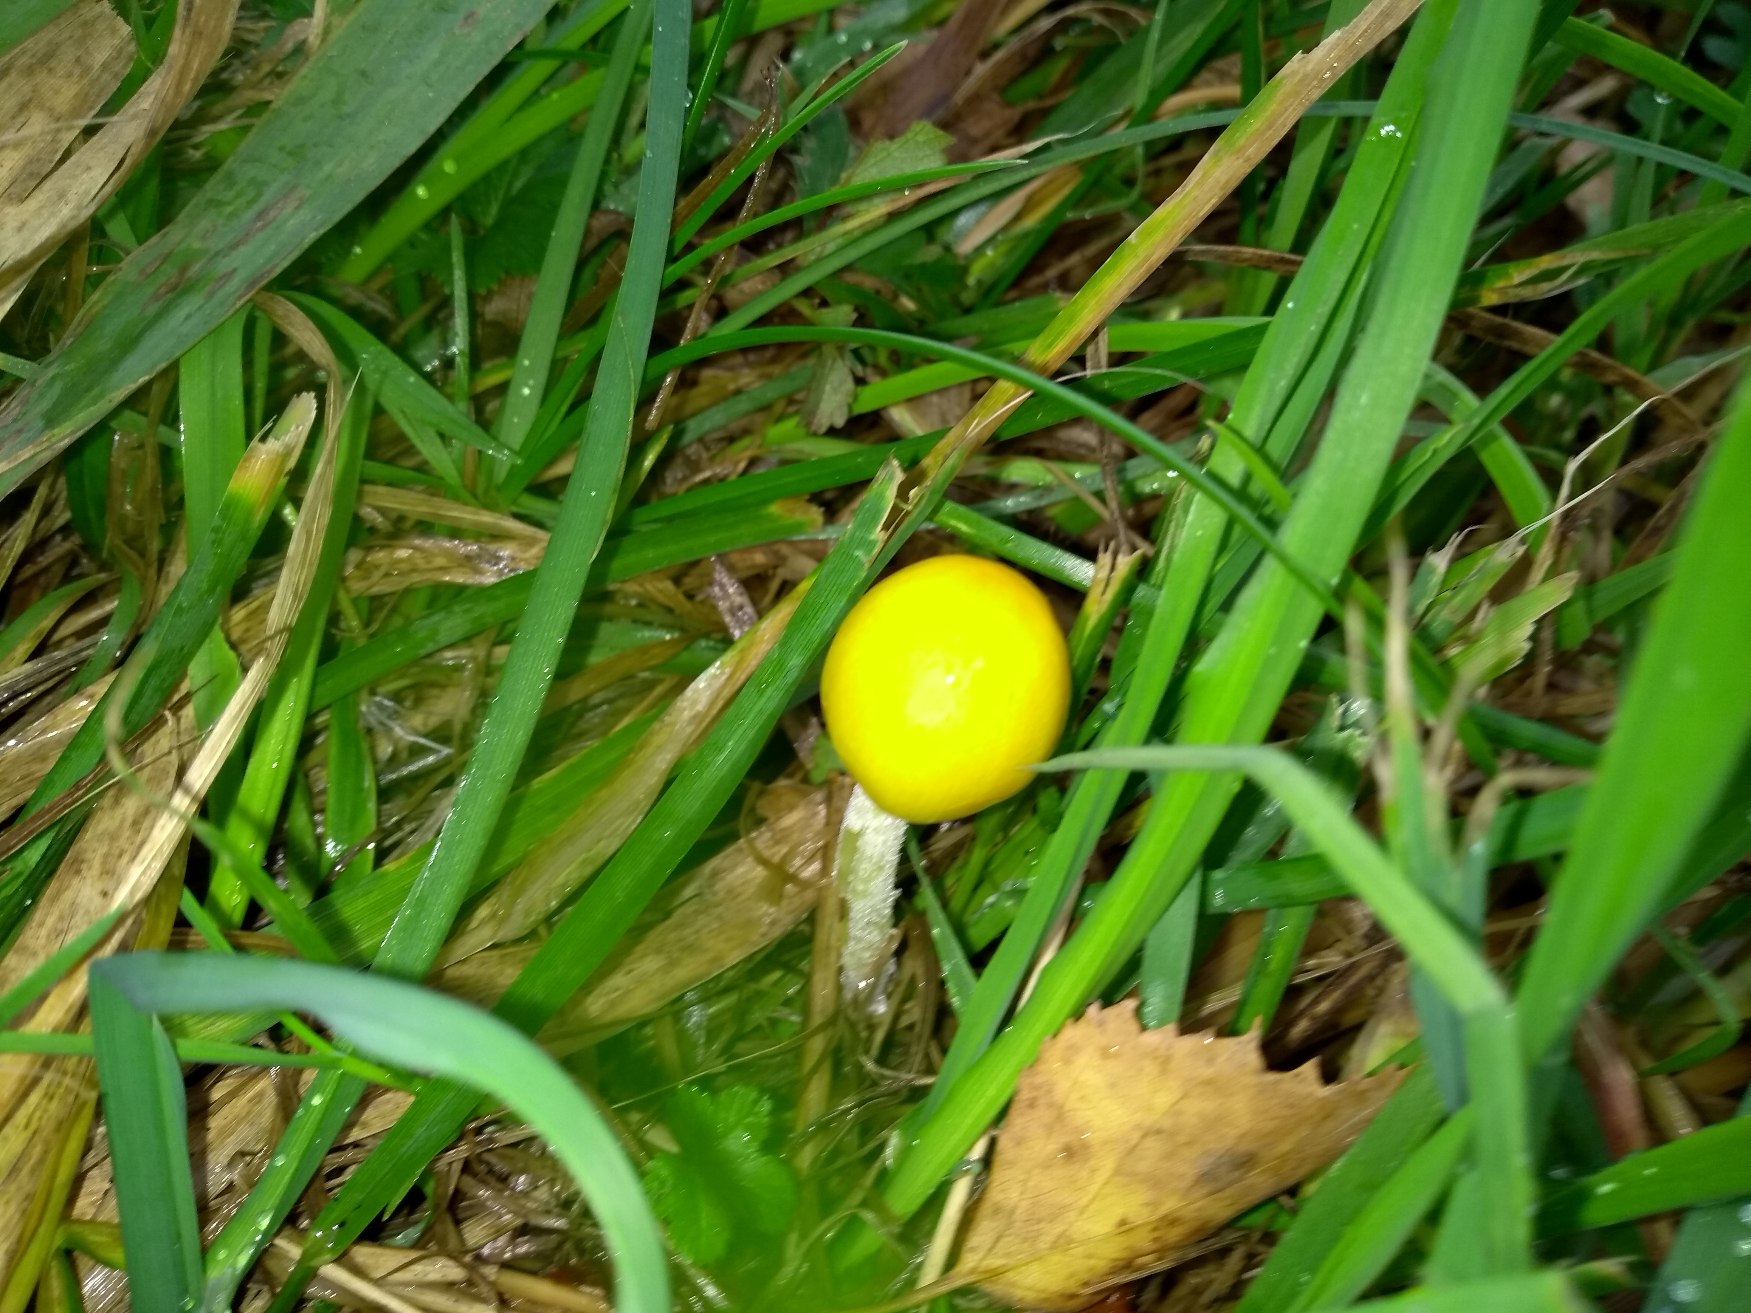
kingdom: Fungi
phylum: Basidiomycota
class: Agaricomycetes
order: Agaricales
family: Bolbitiaceae
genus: Bolbitius
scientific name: Bolbitius titubans
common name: Almindelig gulhat
